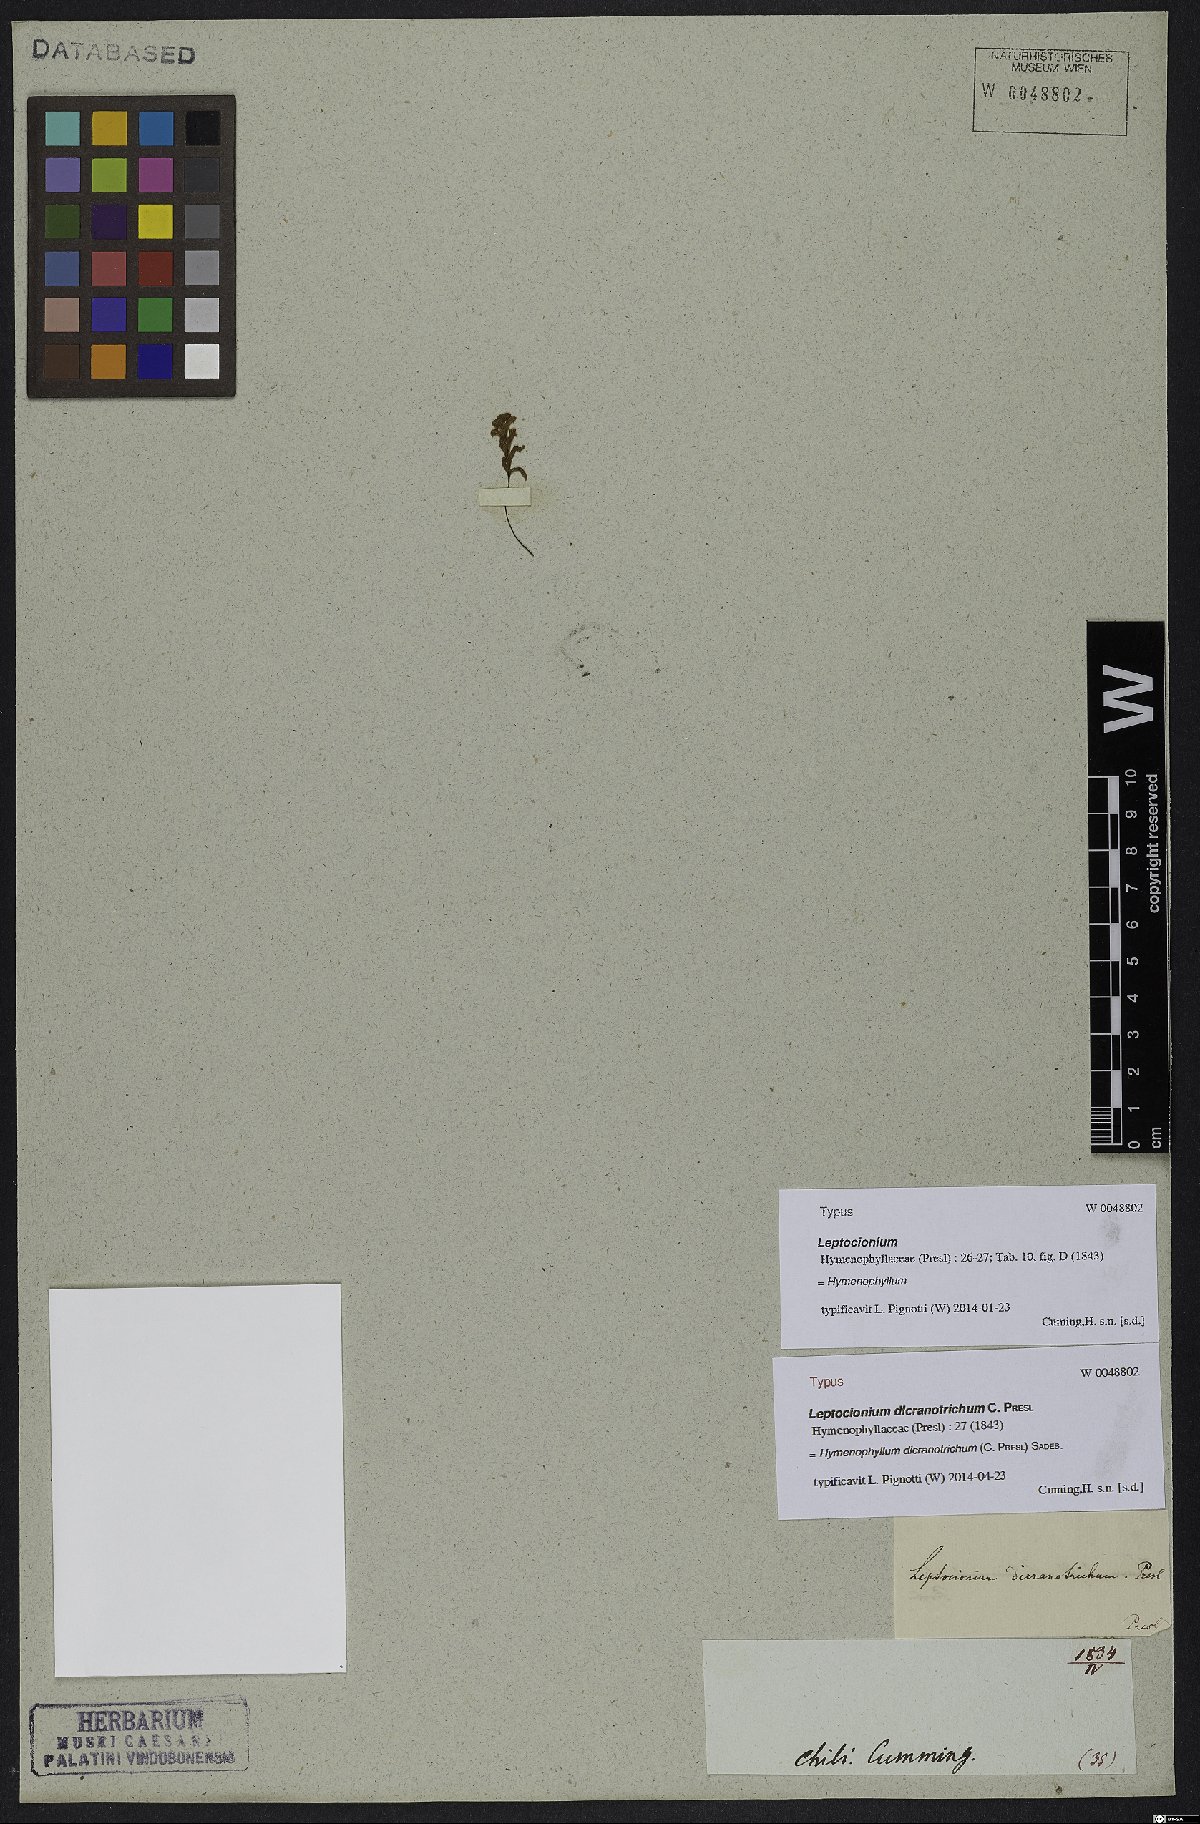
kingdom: Plantae
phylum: Tracheophyta
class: Polypodiopsida
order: Hymenophyllales
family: Hymenophyllaceae
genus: Hymenophyllum
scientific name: Hymenophyllum dicranotrichum
